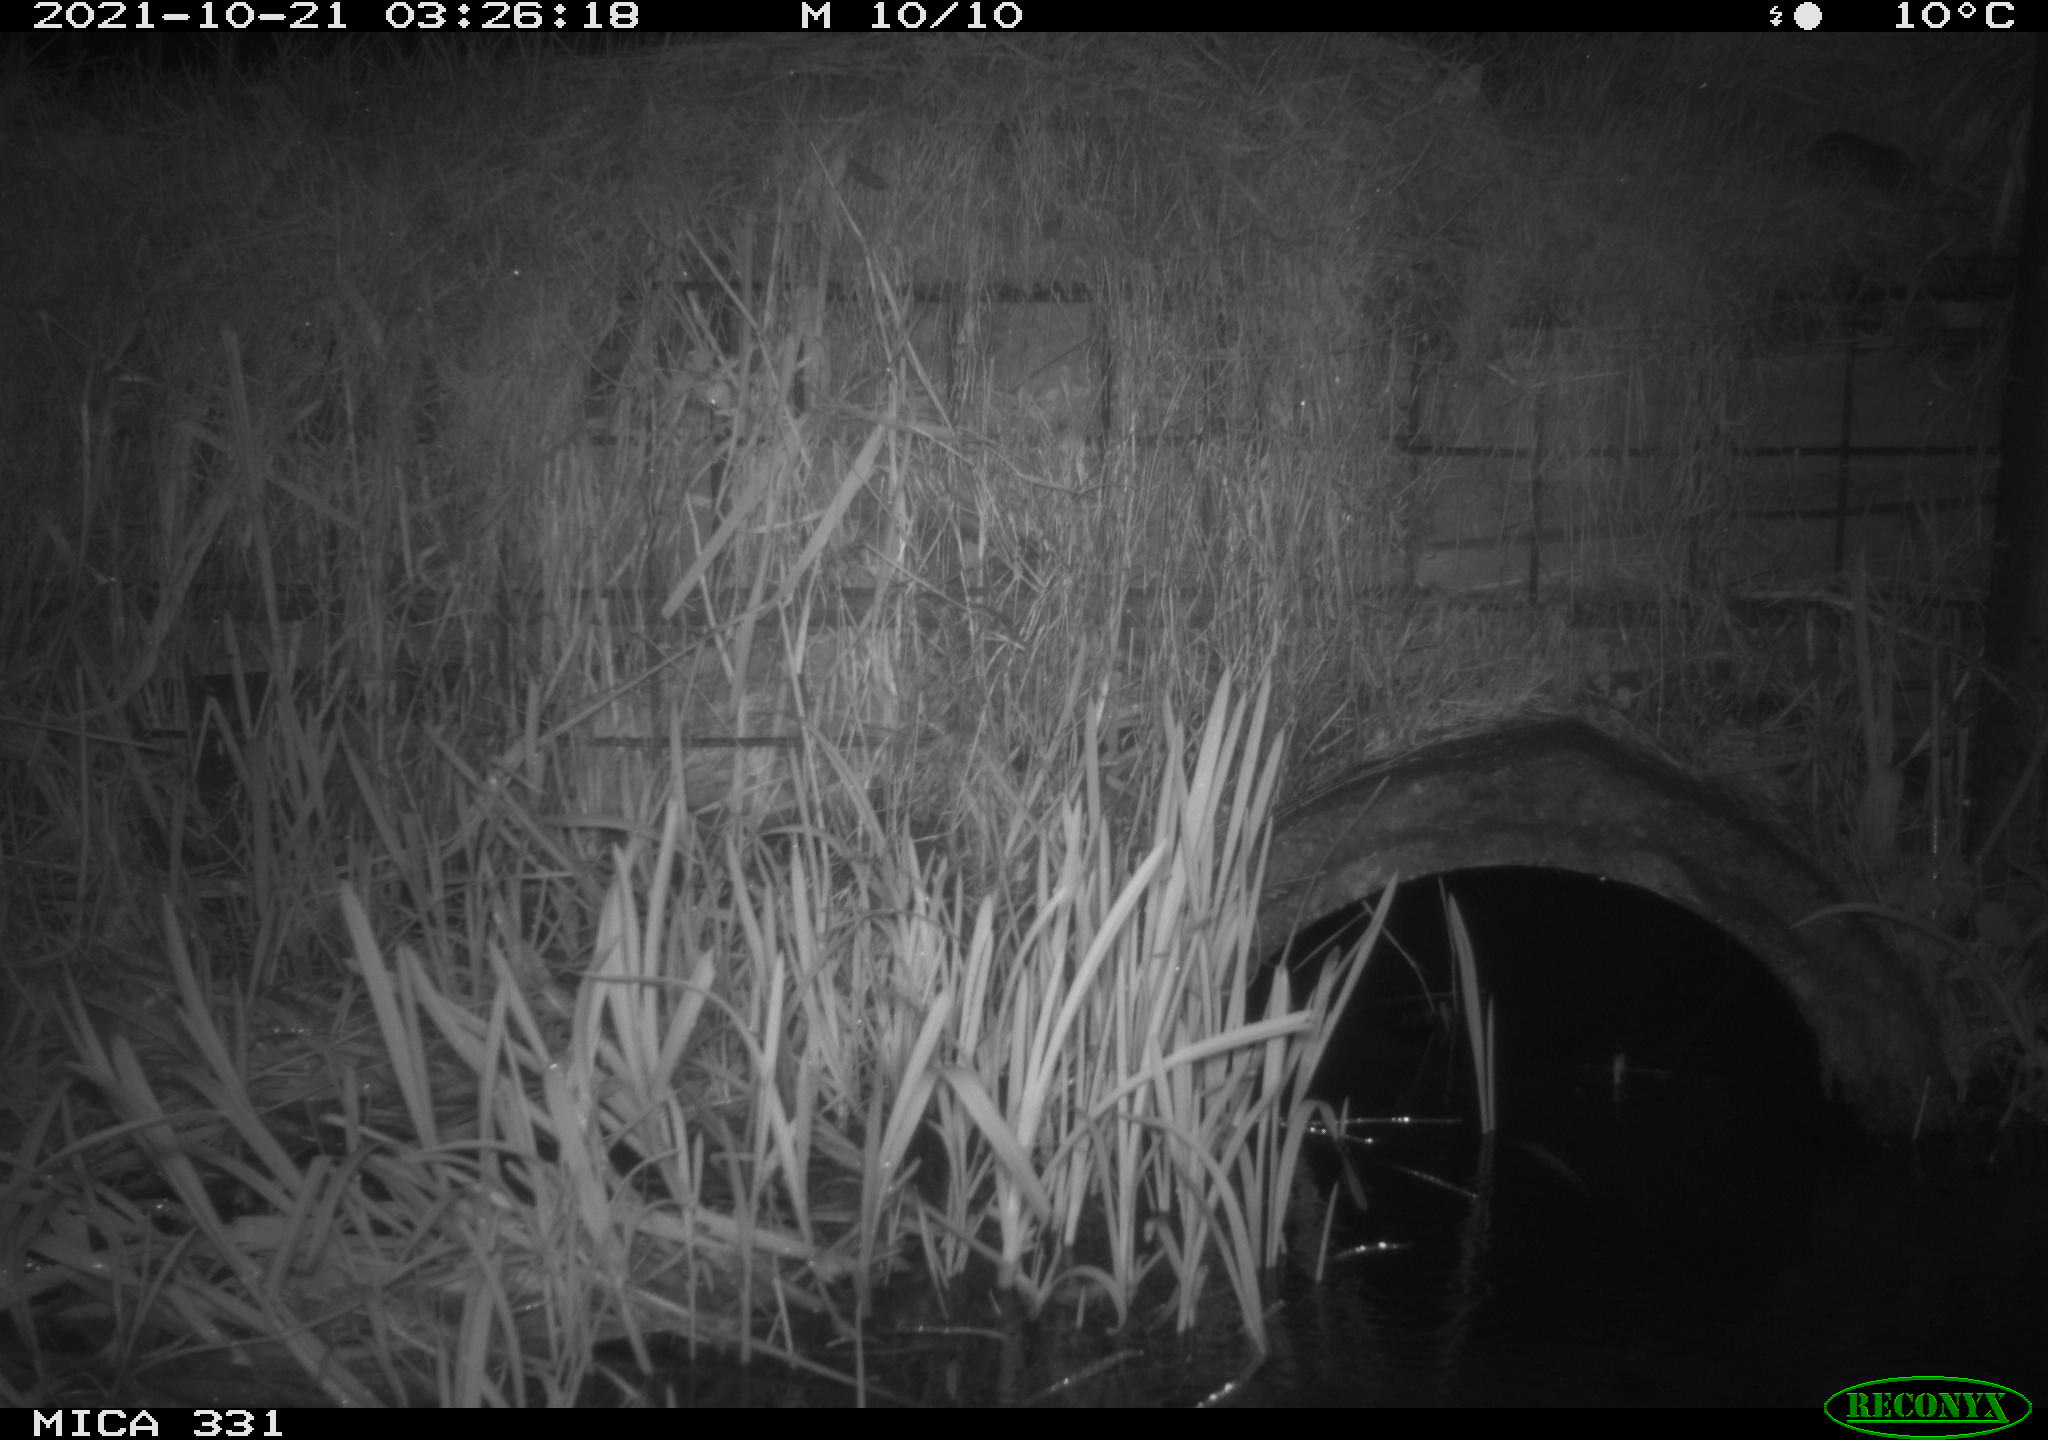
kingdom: Animalia
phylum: Chordata
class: Mammalia
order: Rodentia
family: Muridae
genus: Rattus
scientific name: Rattus norvegicus
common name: Brown rat
